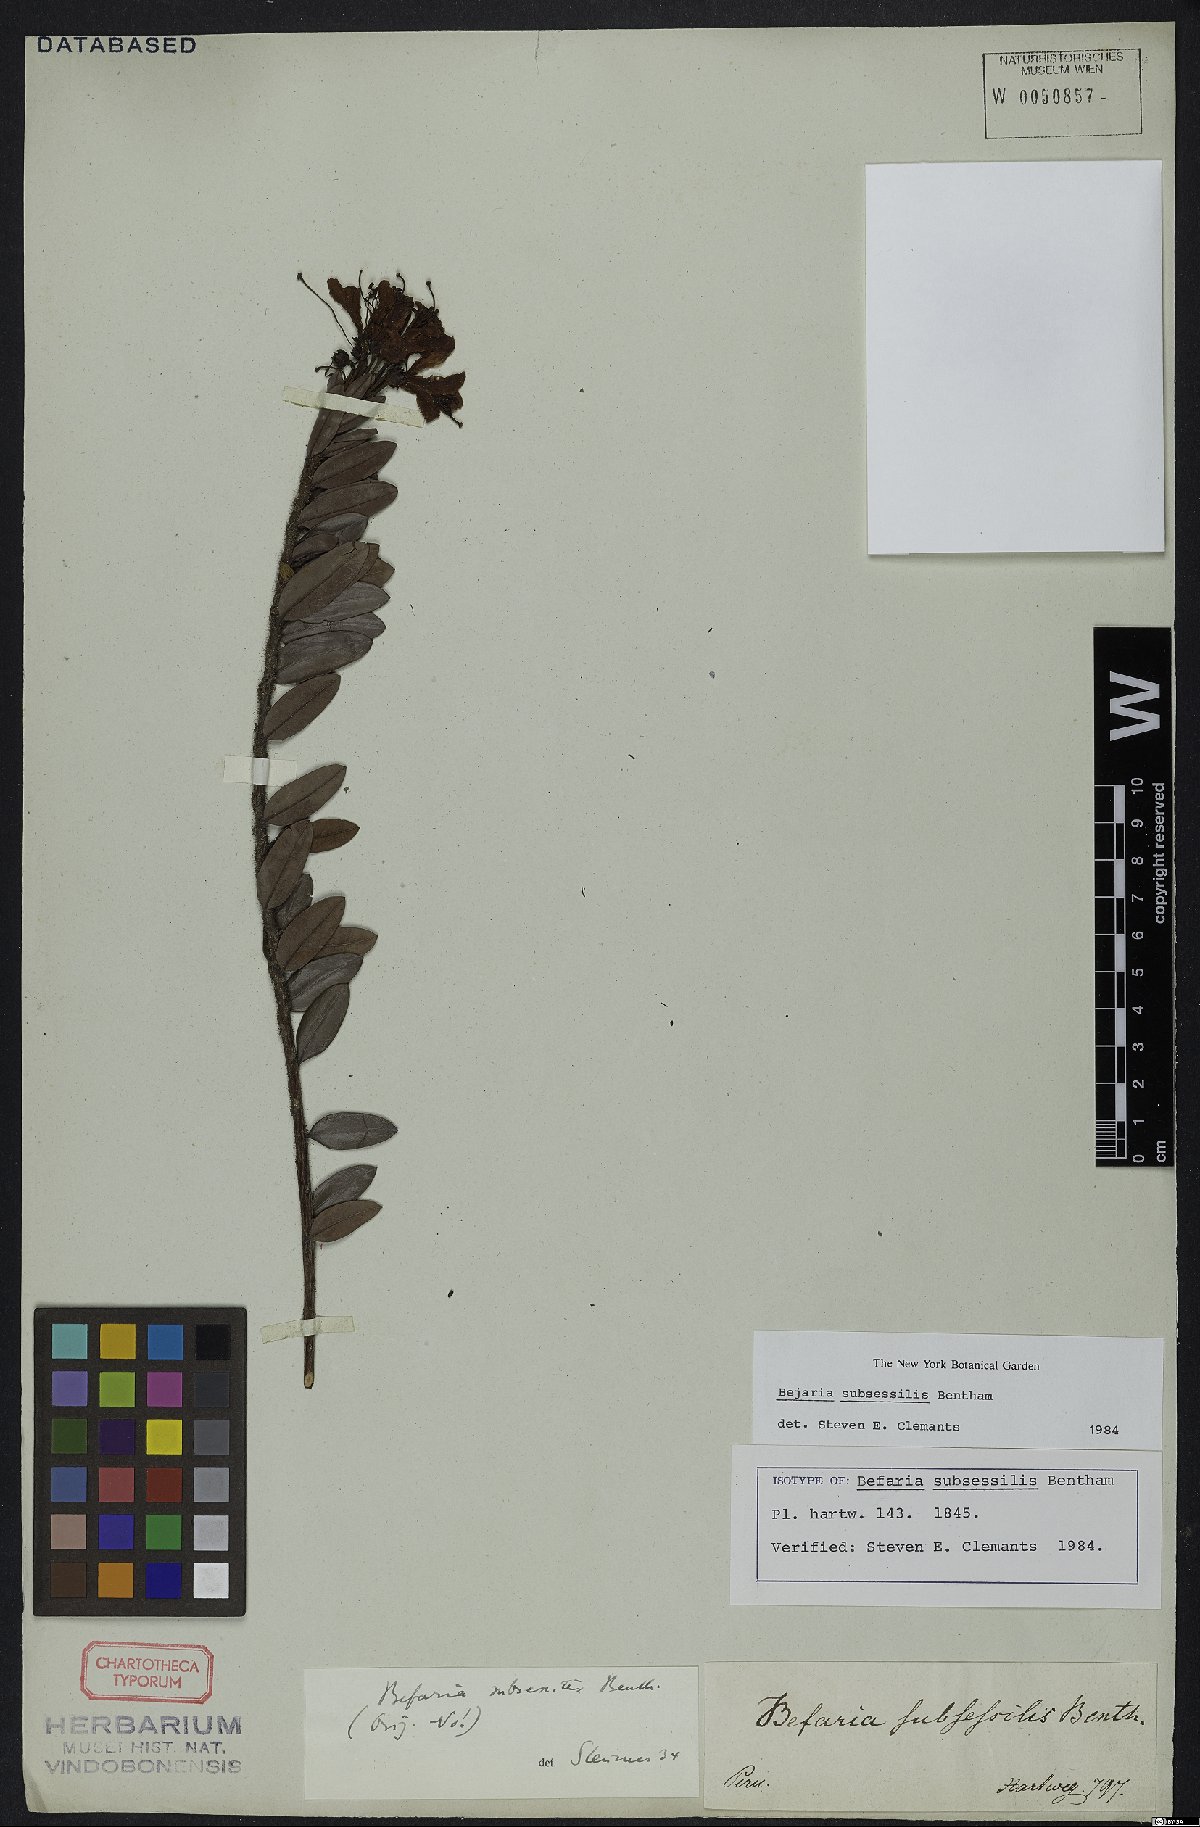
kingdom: Plantae
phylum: Tracheophyta
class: Magnoliopsida
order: Ericales
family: Ericaceae
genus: Bejaria
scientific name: Bejaria subsessilis
